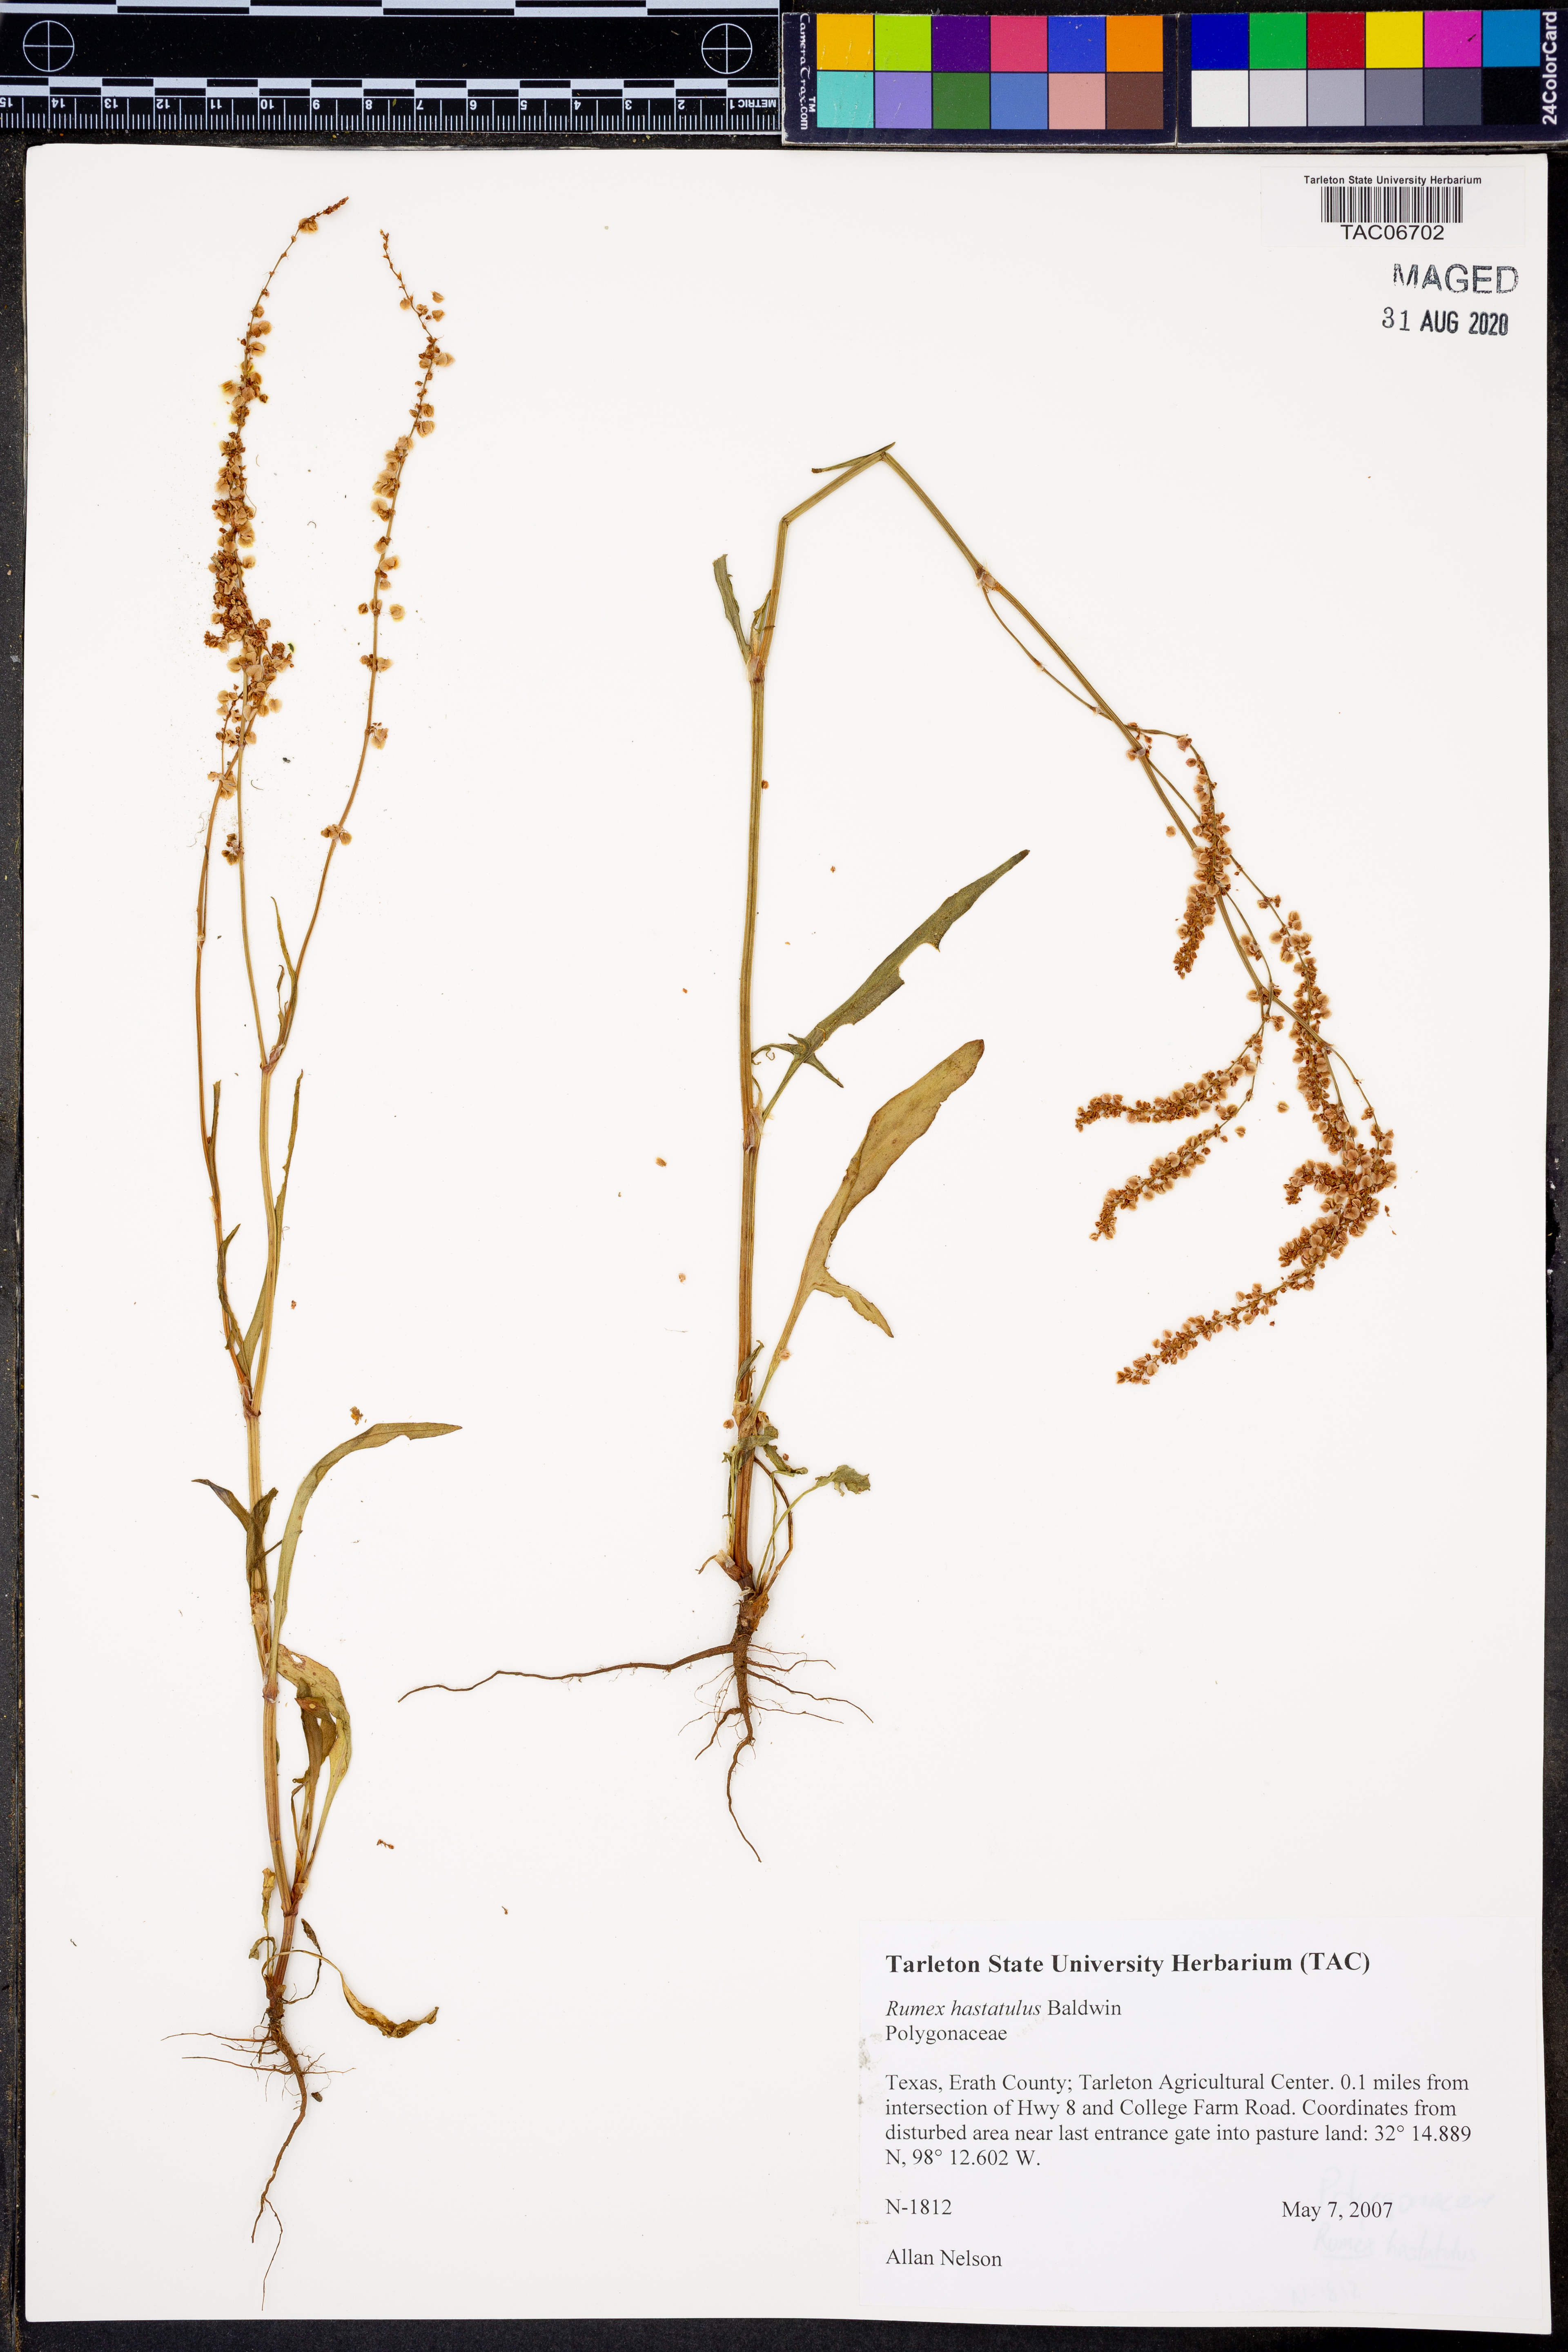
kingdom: Plantae
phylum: Tracheophyta
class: Magnoliopsida
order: Caryophyllales
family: Polygonaceae
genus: Rumex
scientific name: Rumex hastatulus
